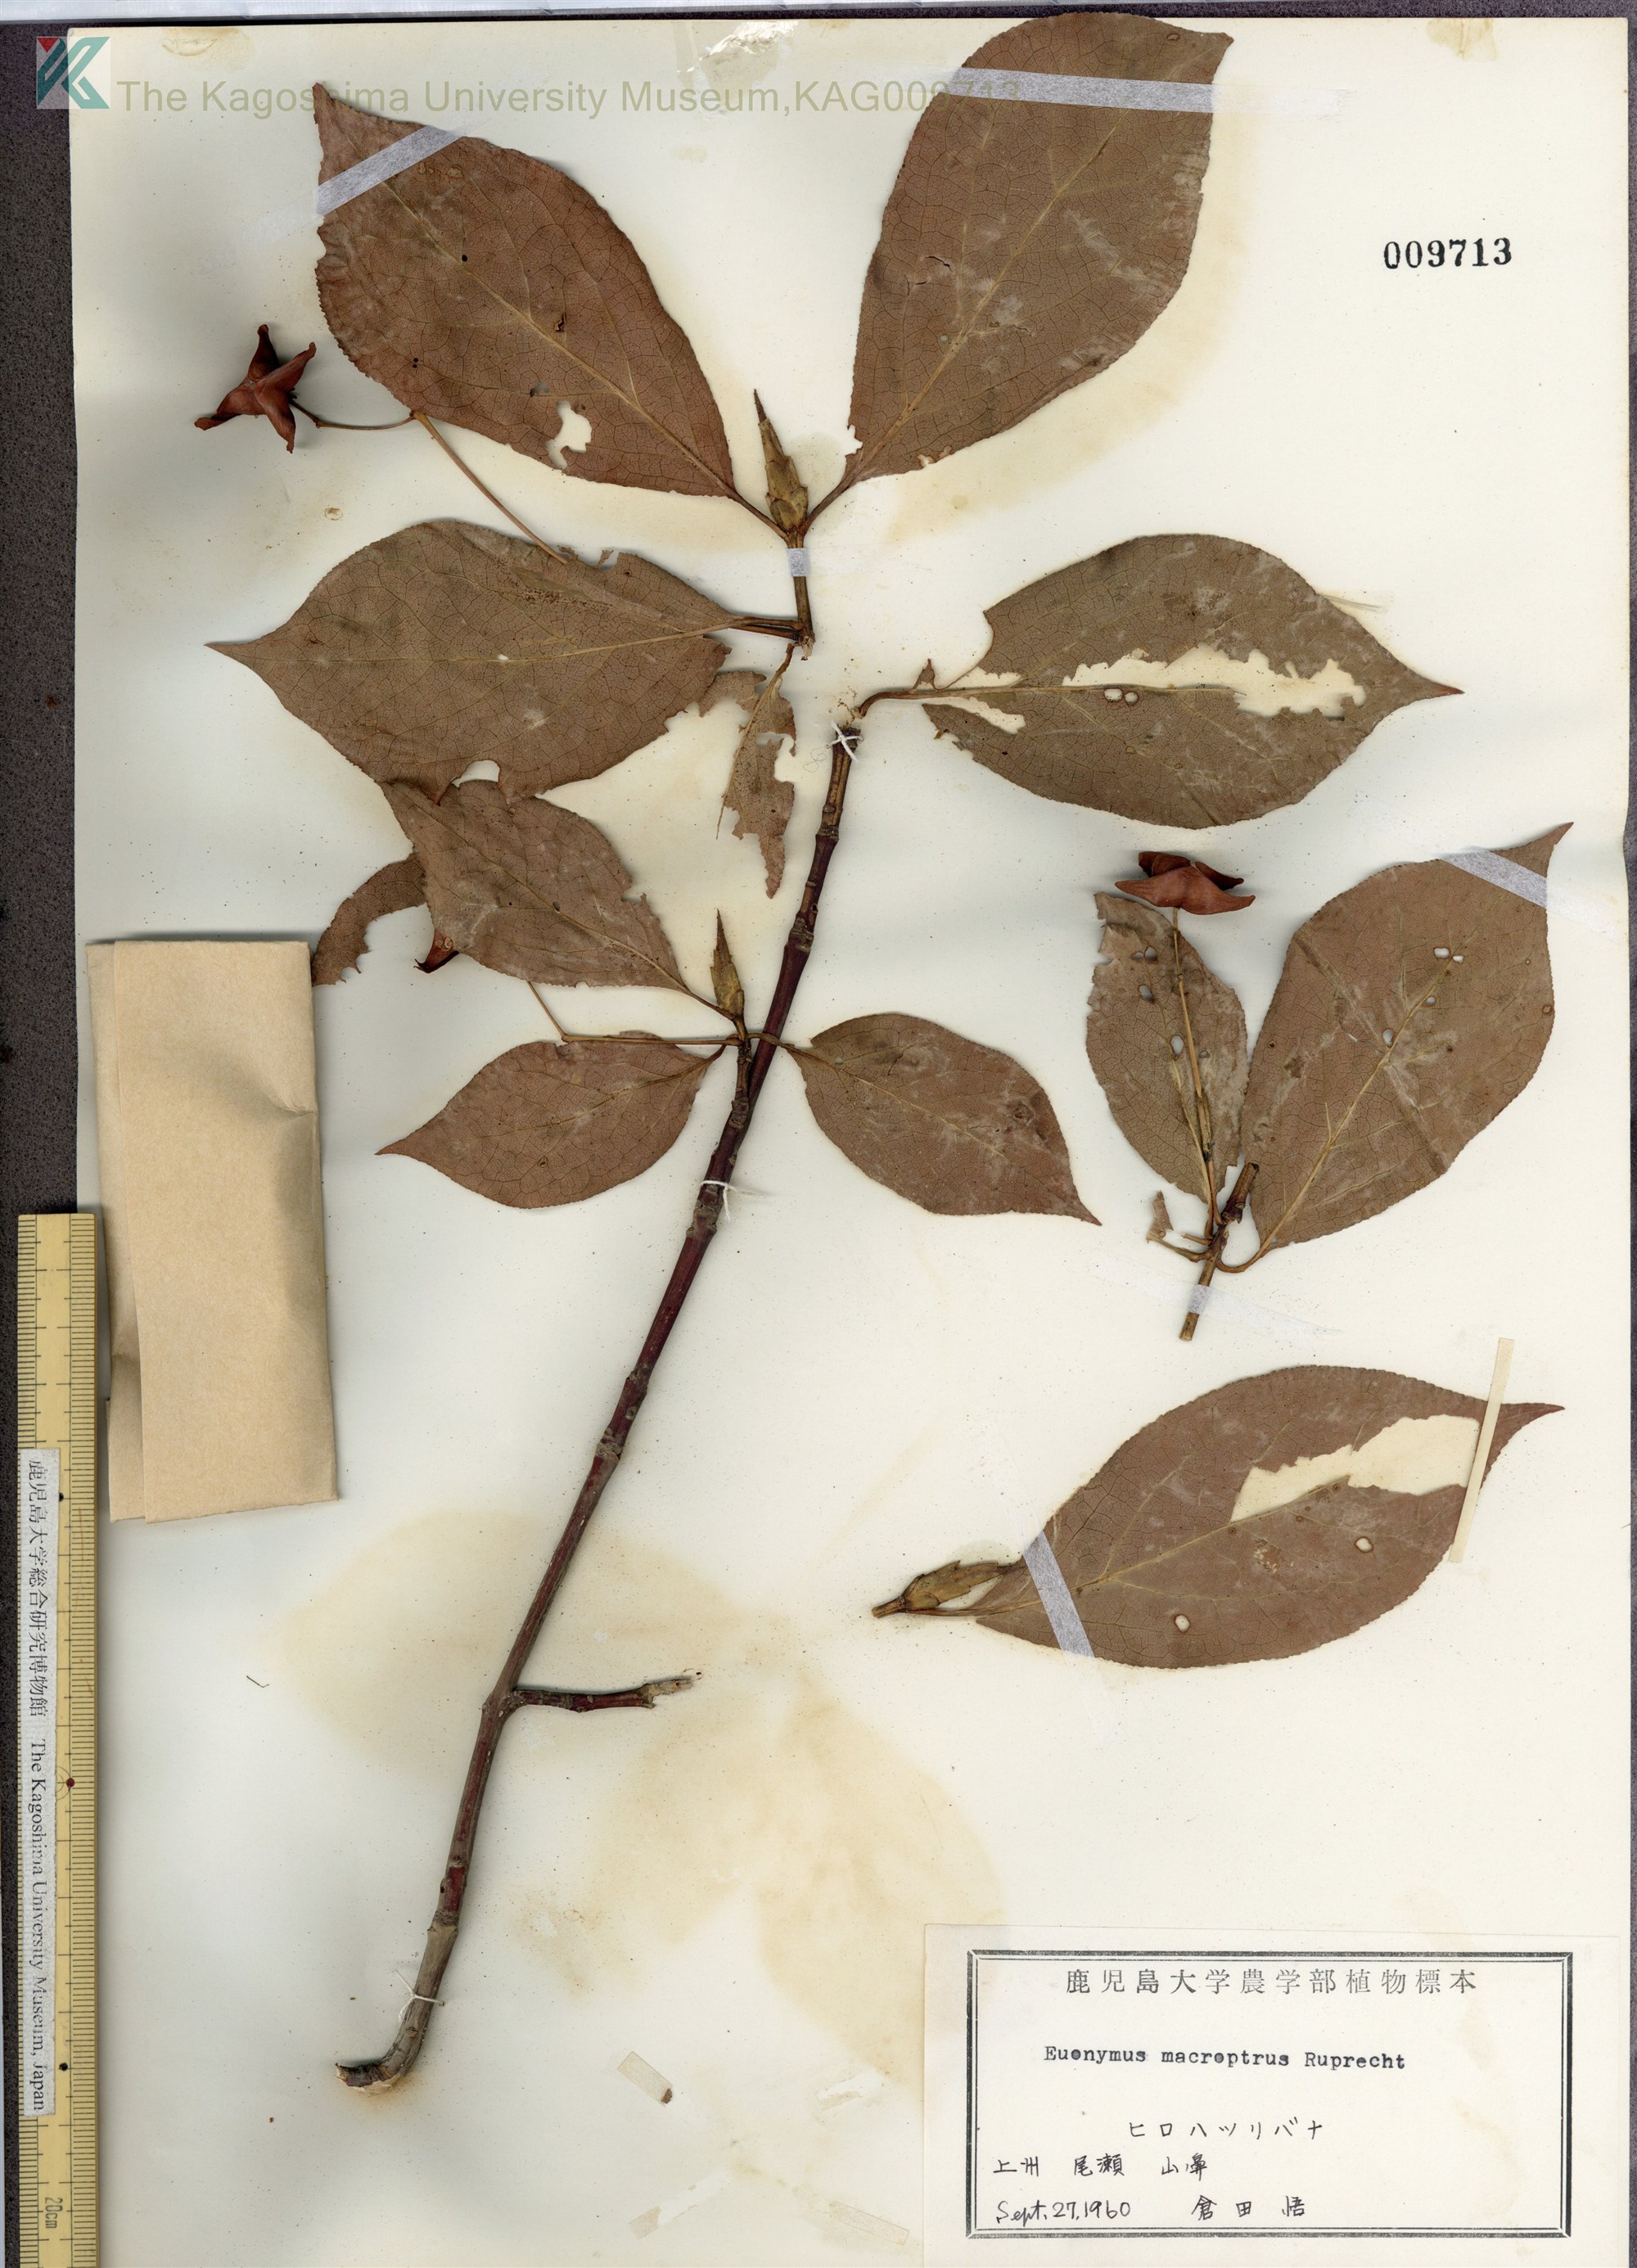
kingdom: Plantae
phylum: Tracheophyta
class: Magnoliopsida
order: Celastrales
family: Celastraceae
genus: Euonymus
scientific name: Euonymus macropterus
